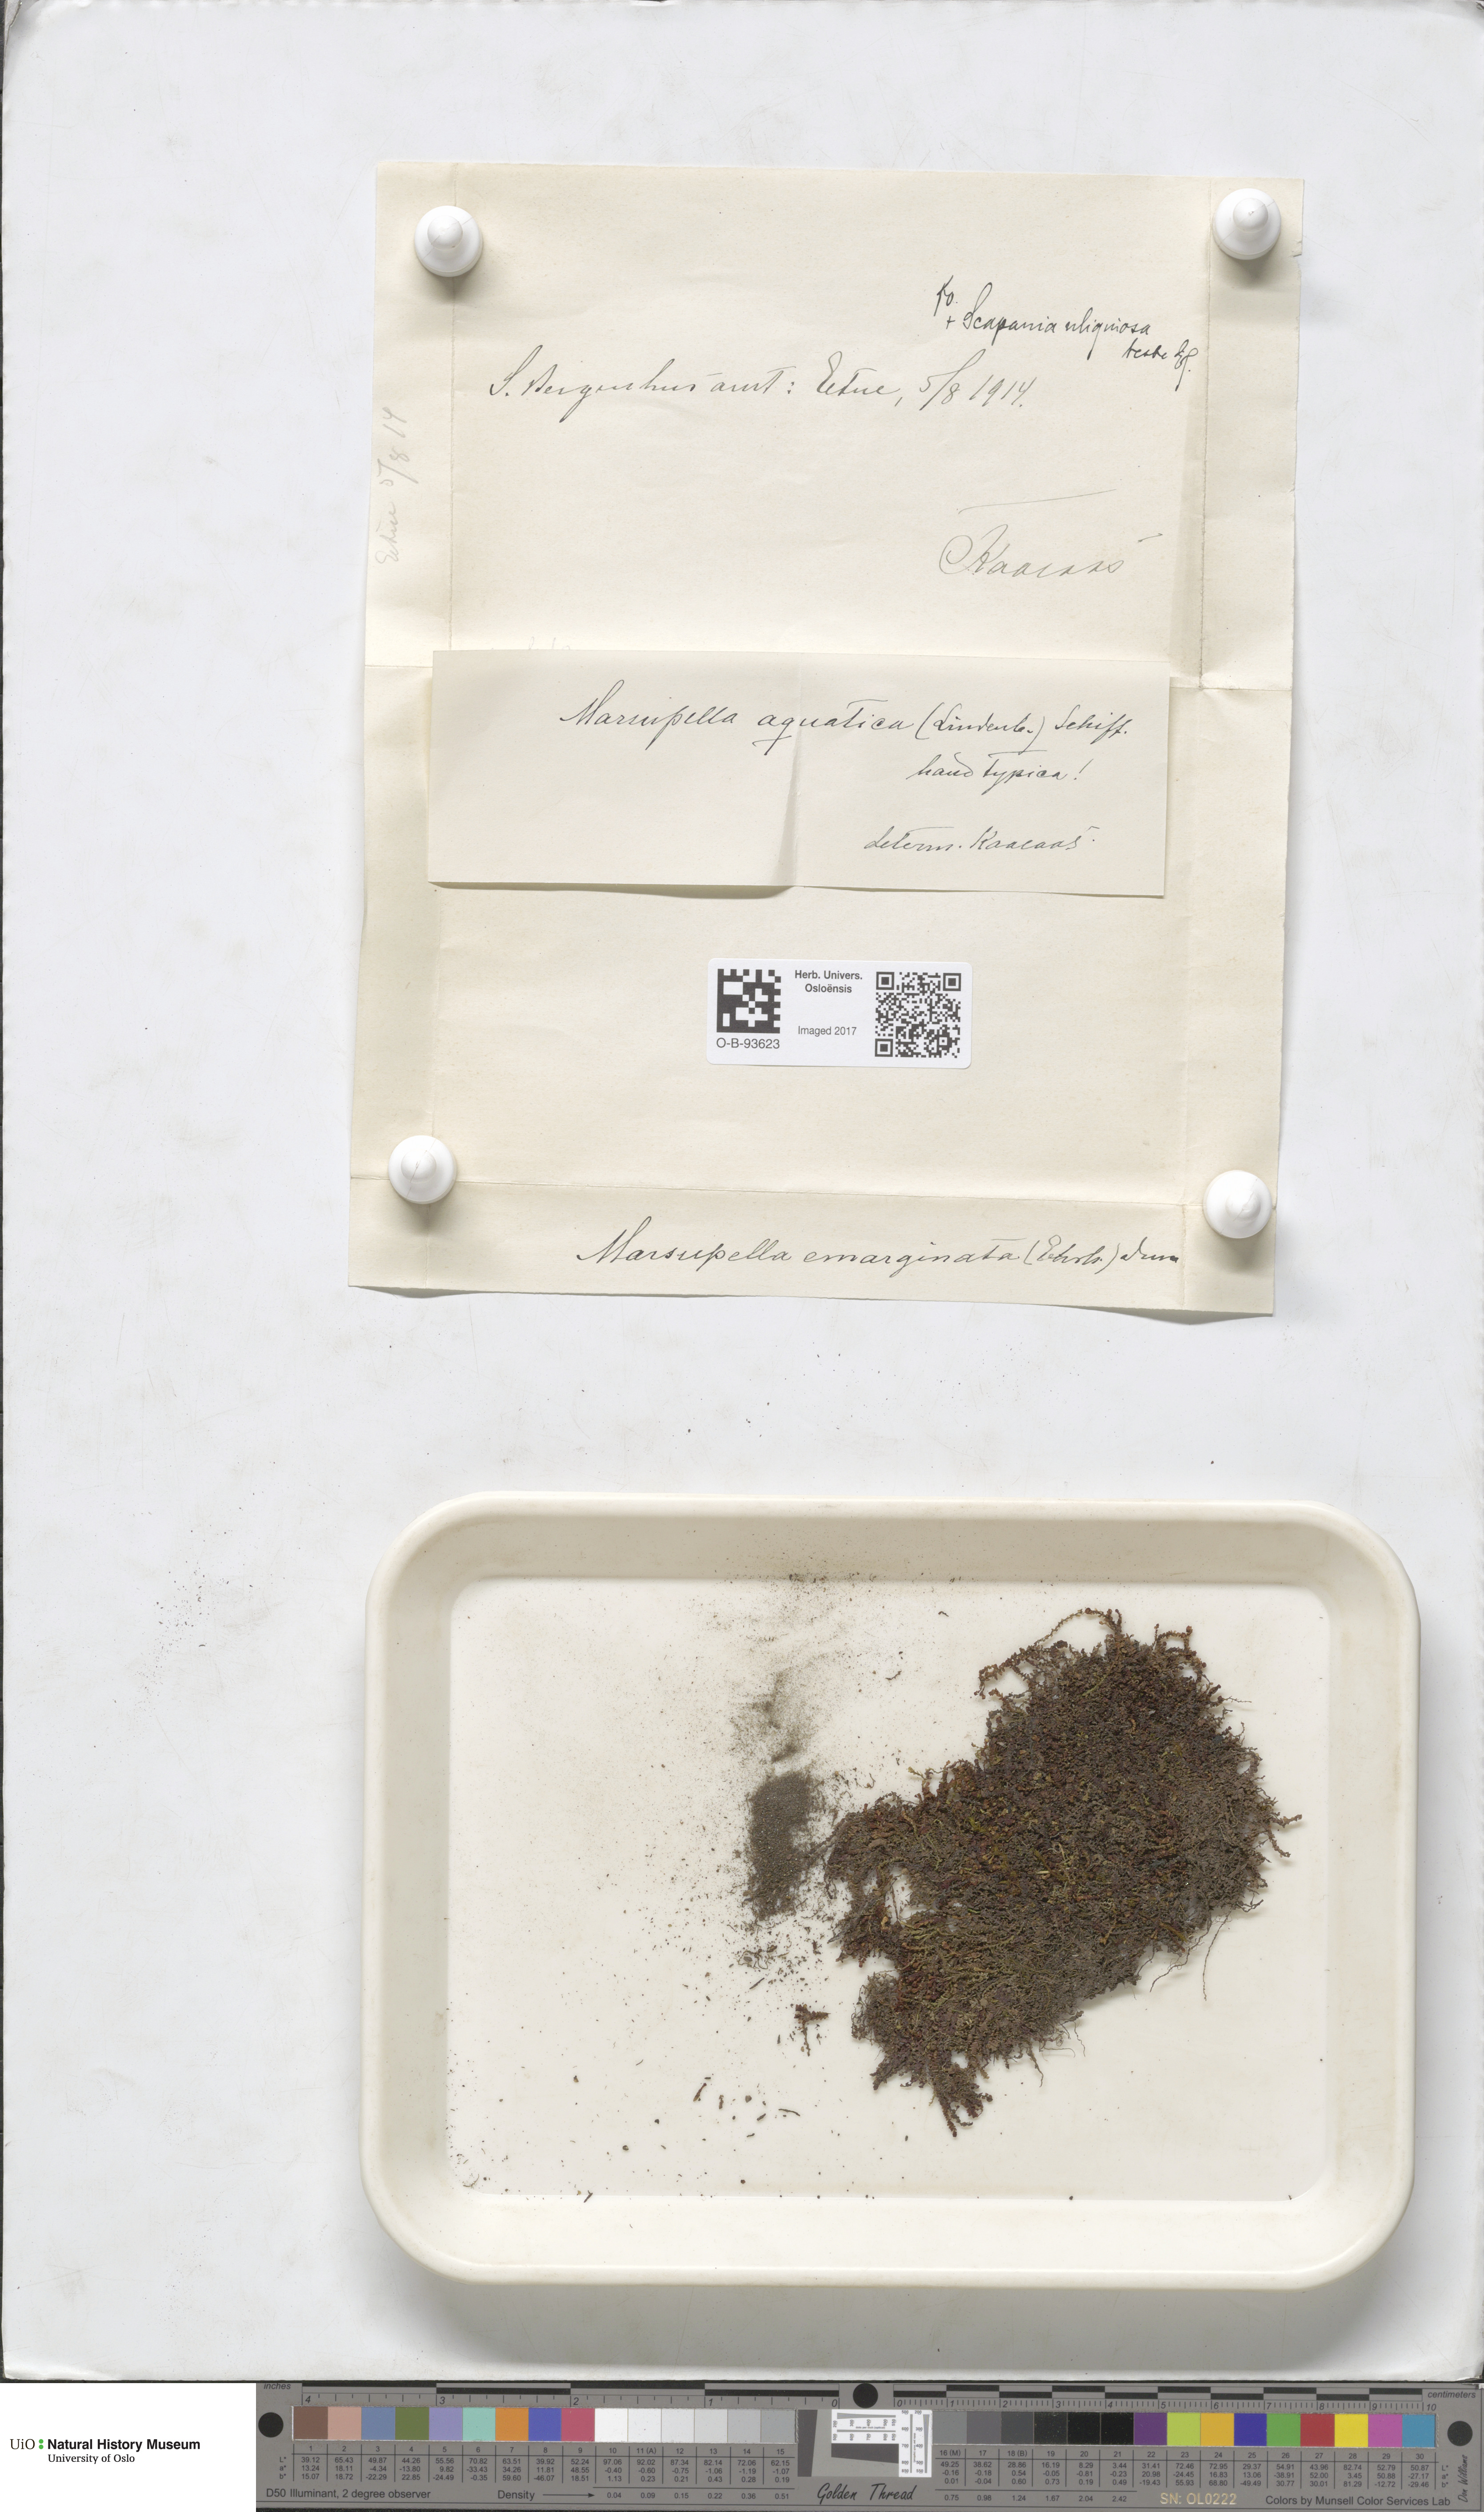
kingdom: Plantae
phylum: Marchantiophyta
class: Jungermanniopsida
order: Jungermanniales
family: Gymnomitriaceae
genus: Marsupella
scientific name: Marsupella emarginata
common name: Notched rustwort
